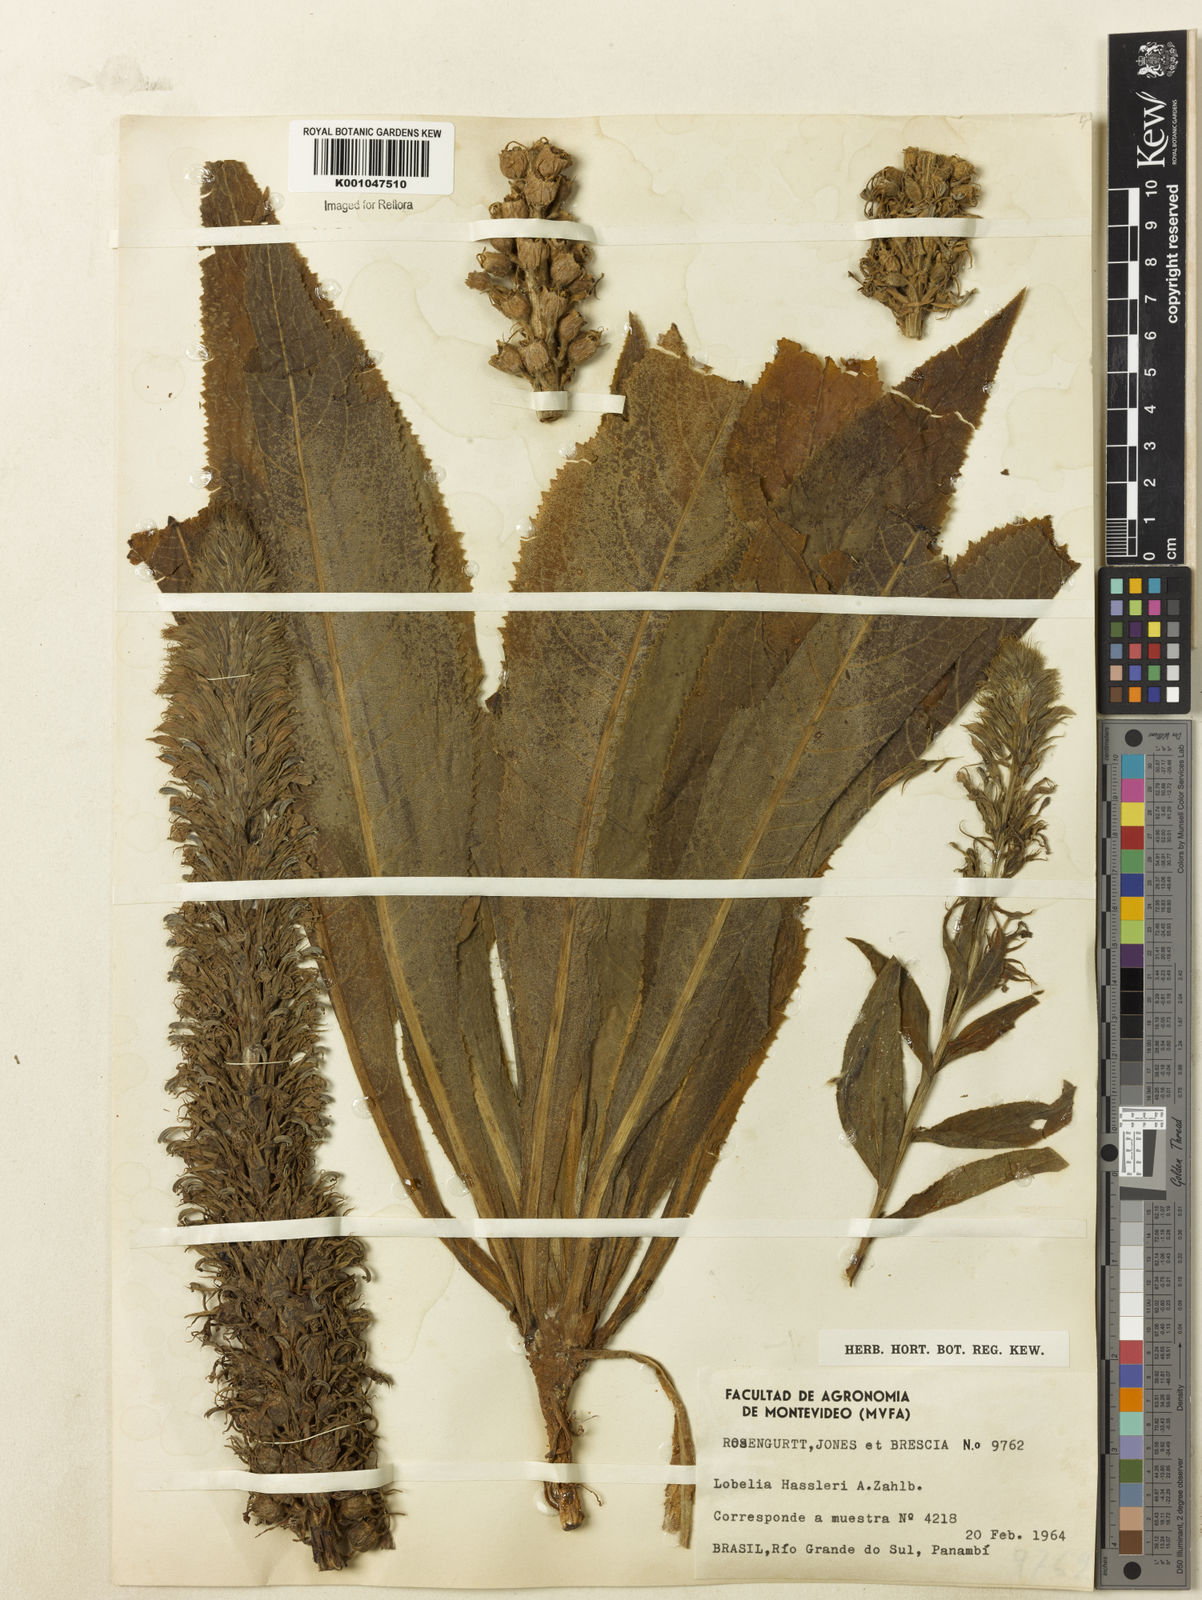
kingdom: Plantae
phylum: Tracheophyta
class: Magnoliopsida
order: Asterales
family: Campanulaceae
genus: Lobelia
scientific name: Lobelia hassleri
